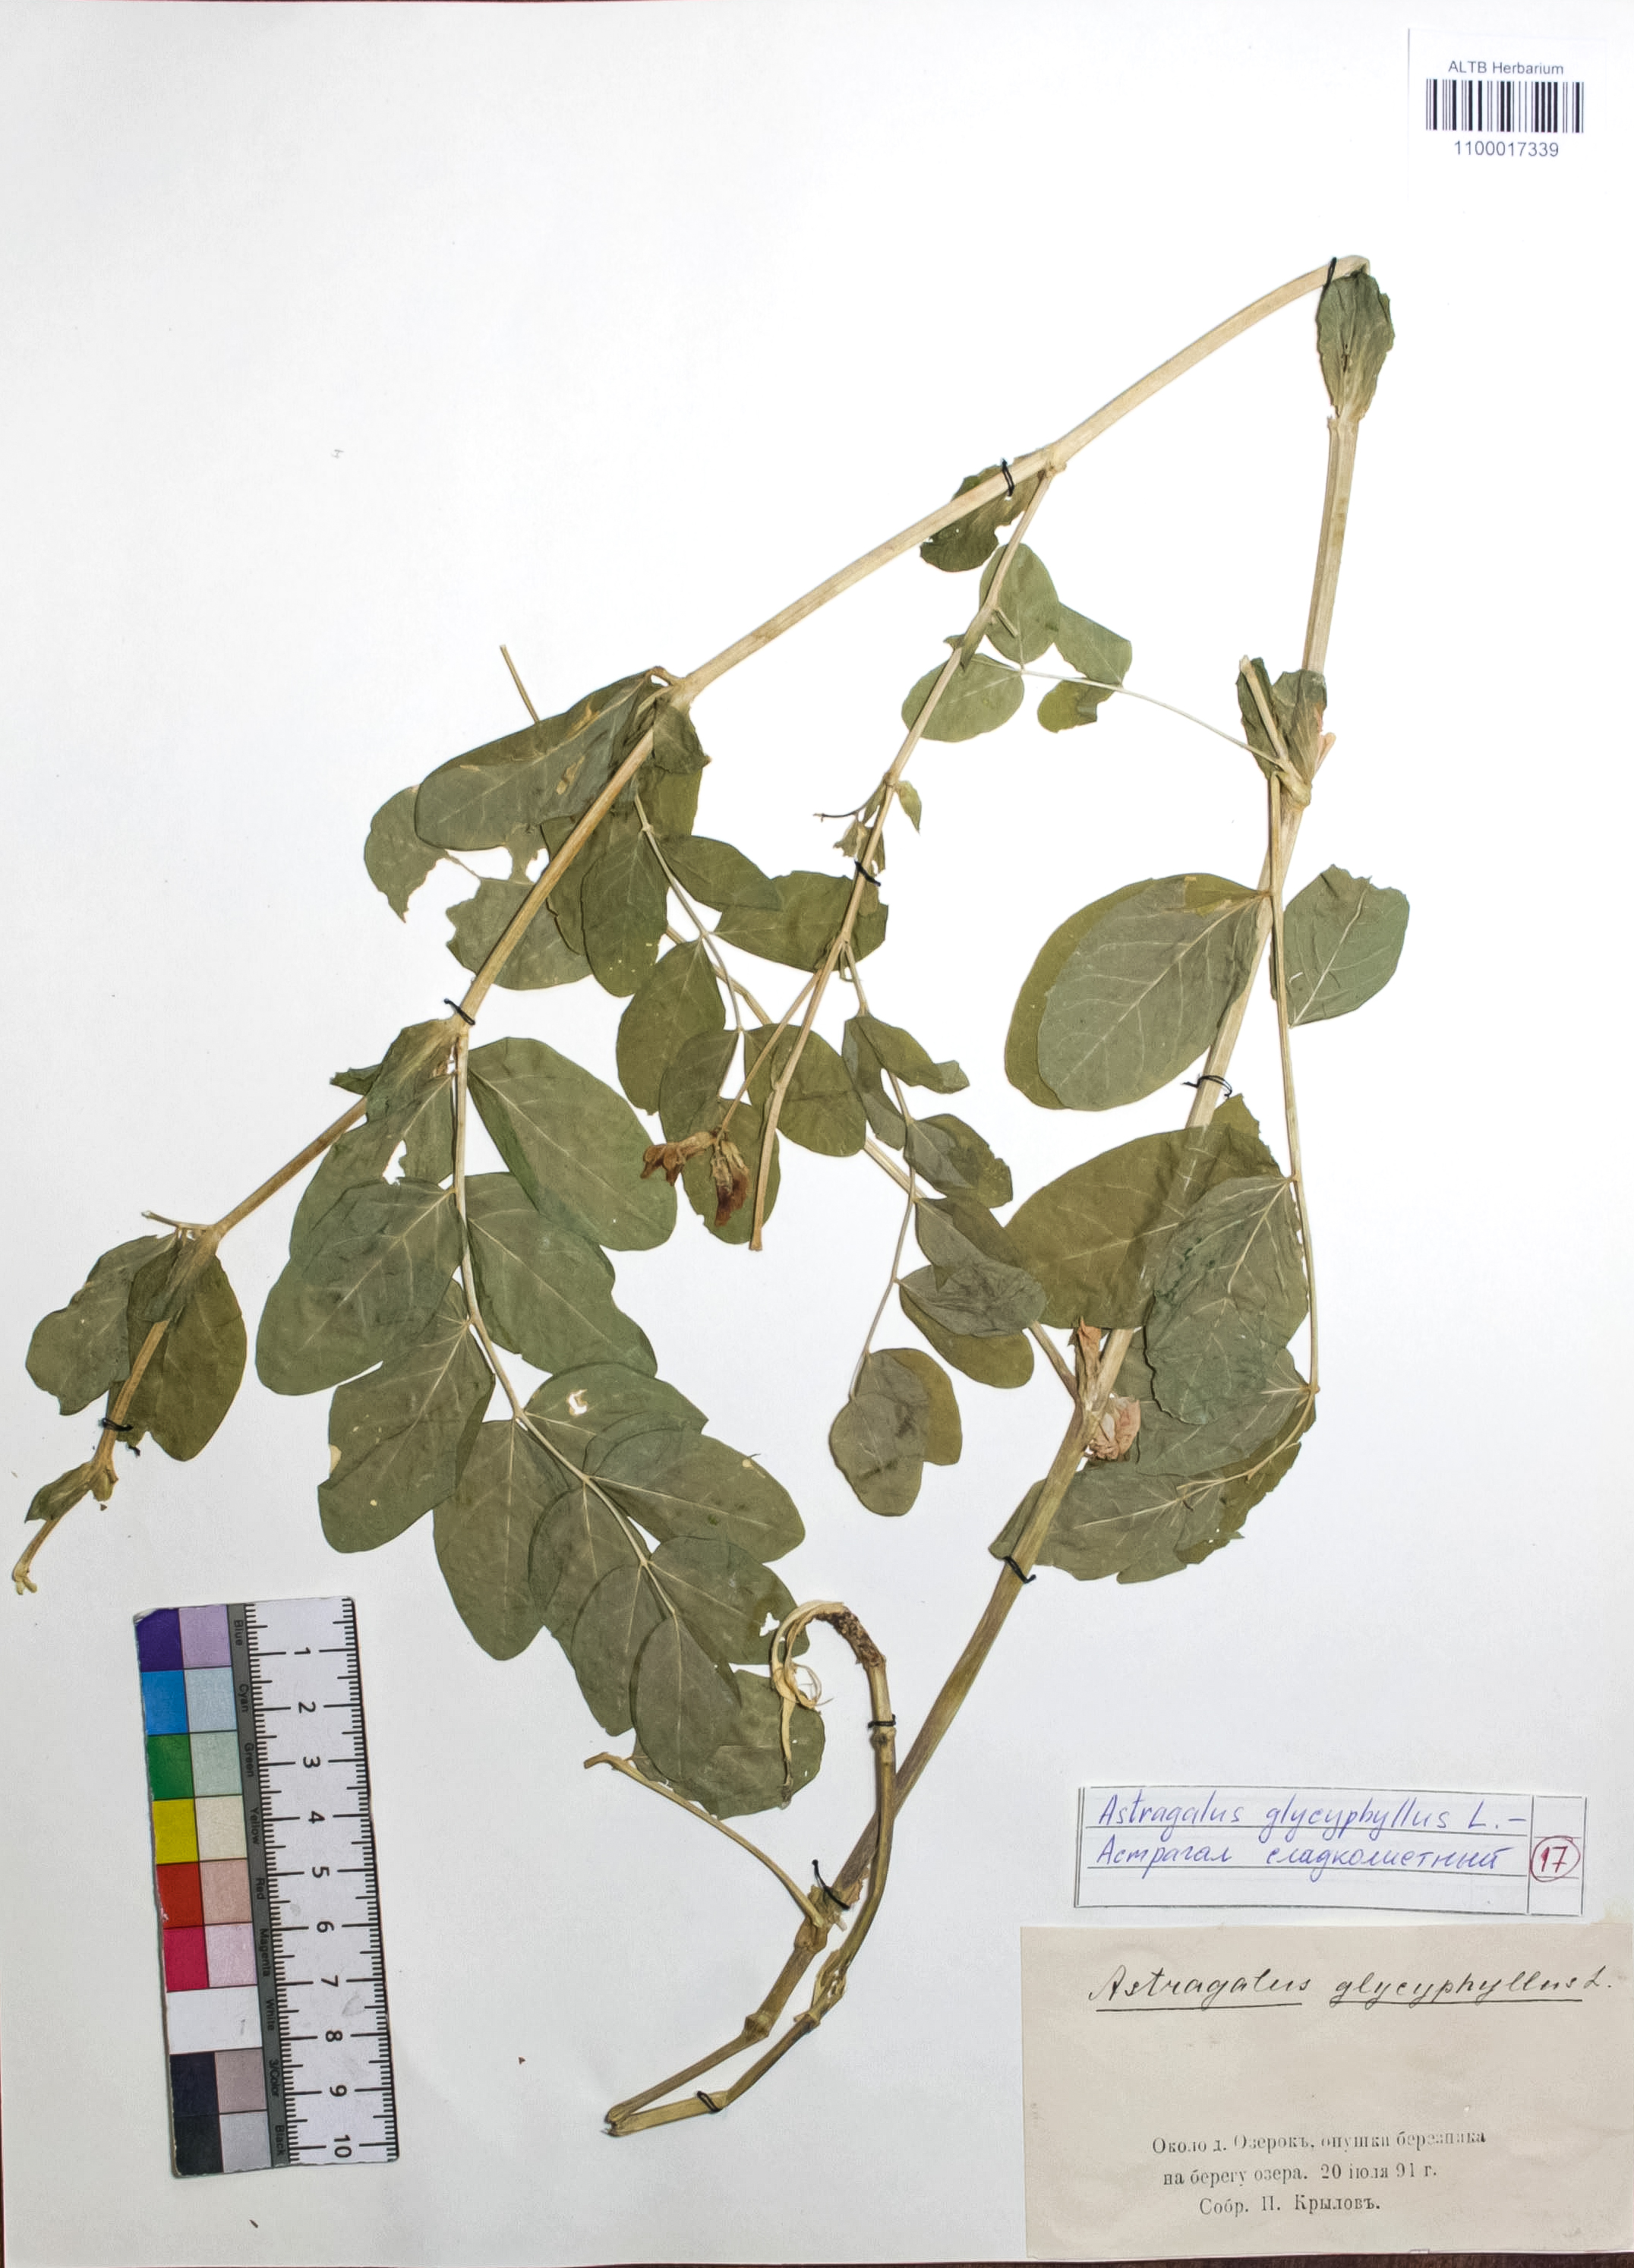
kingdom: Plantae
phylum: Tracheophyta
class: Magnoliopsida
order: Fabales
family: Fabaceae
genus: Astragalus
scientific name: Astragalus glycyphyllos
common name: Wild liquorice
